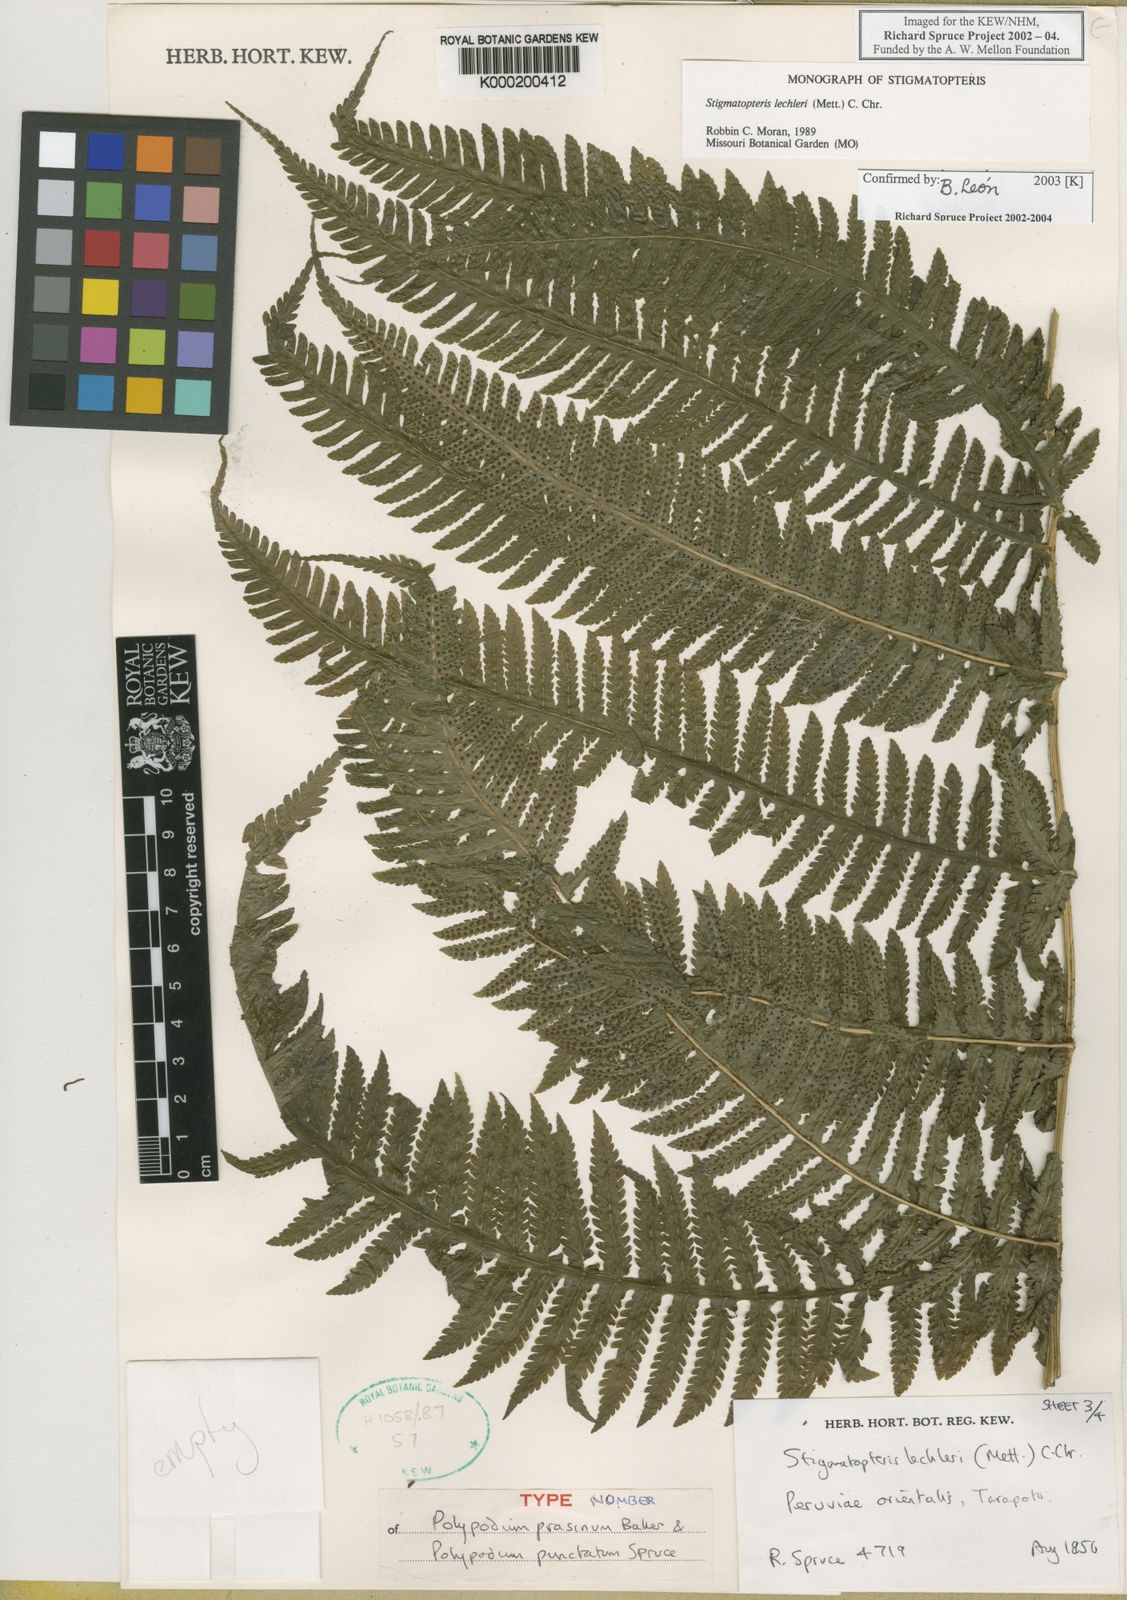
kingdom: Plantae
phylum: Tracheophyta
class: Polypodiopsida
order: Polypodiales
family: Dryopteridaceae
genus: Stigmatopteris
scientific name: Stigmatopteris lechleri
